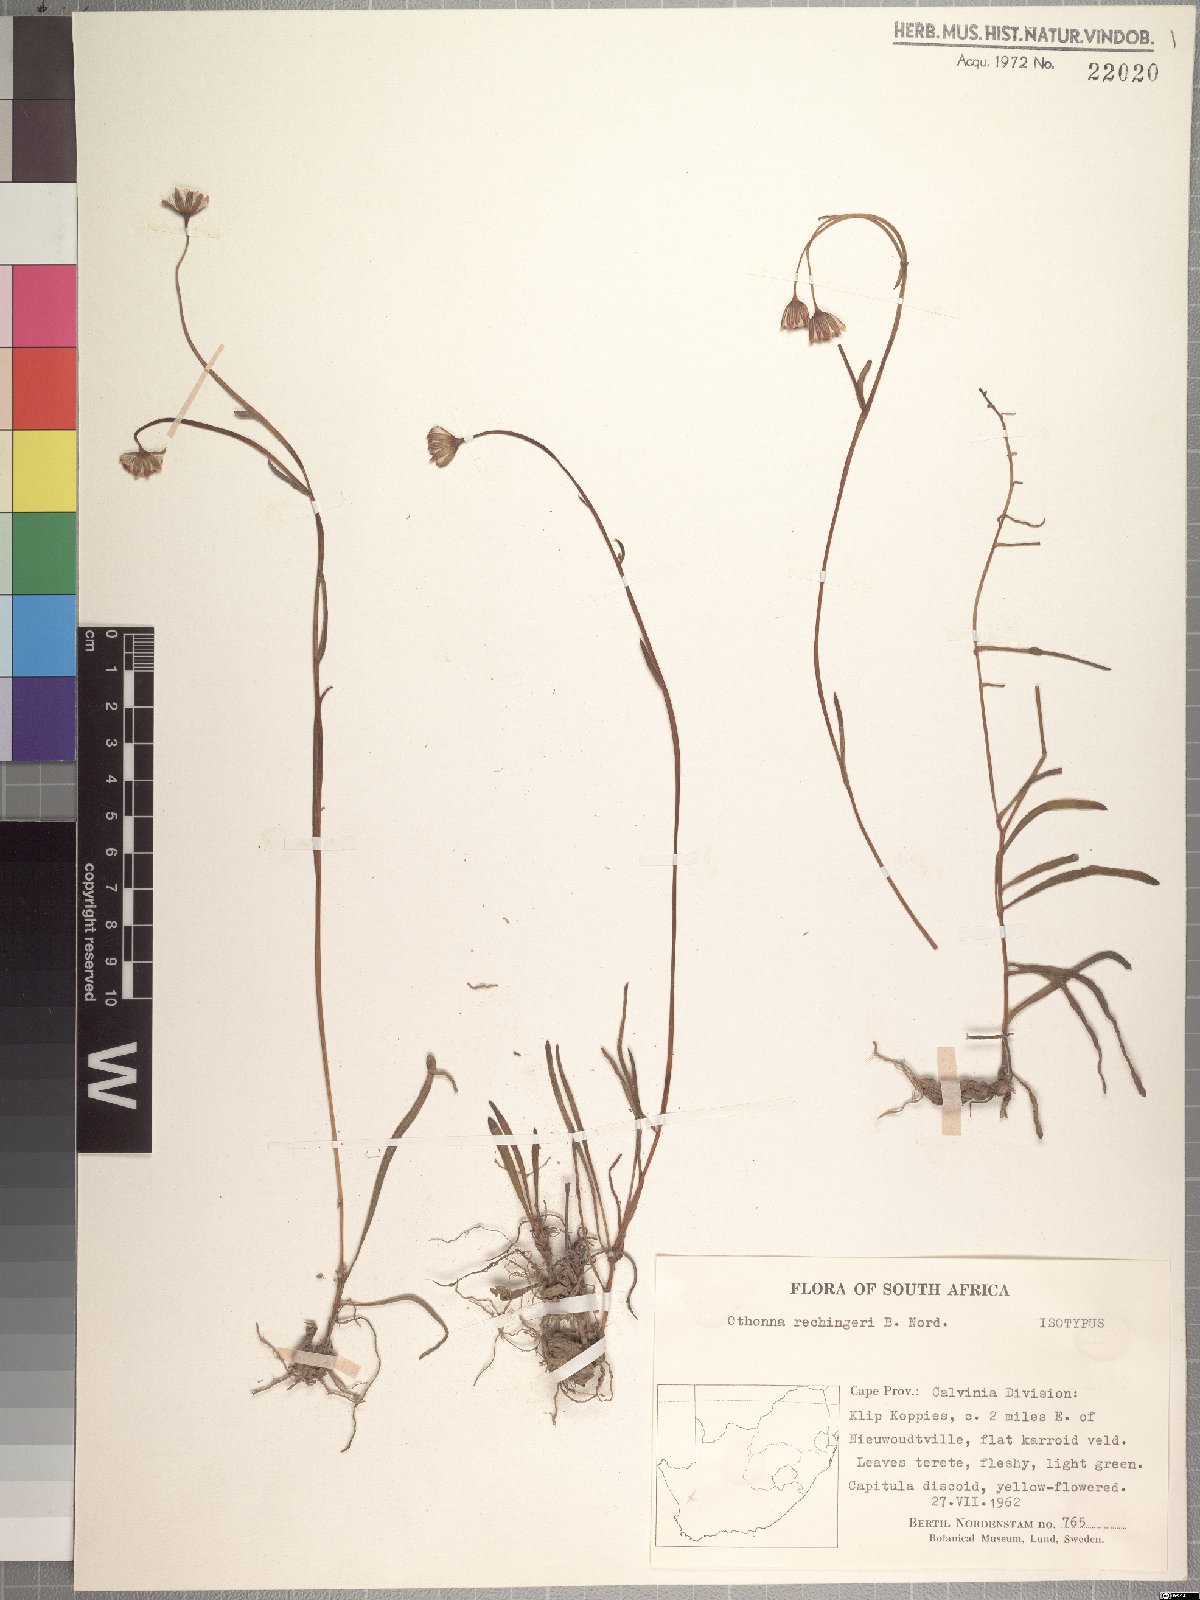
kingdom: Plantae
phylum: Tracheophyta
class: Magnoliopsida
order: Asterales
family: Asteraceae
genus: Crassothonna
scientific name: Crassothonna rechingeri
